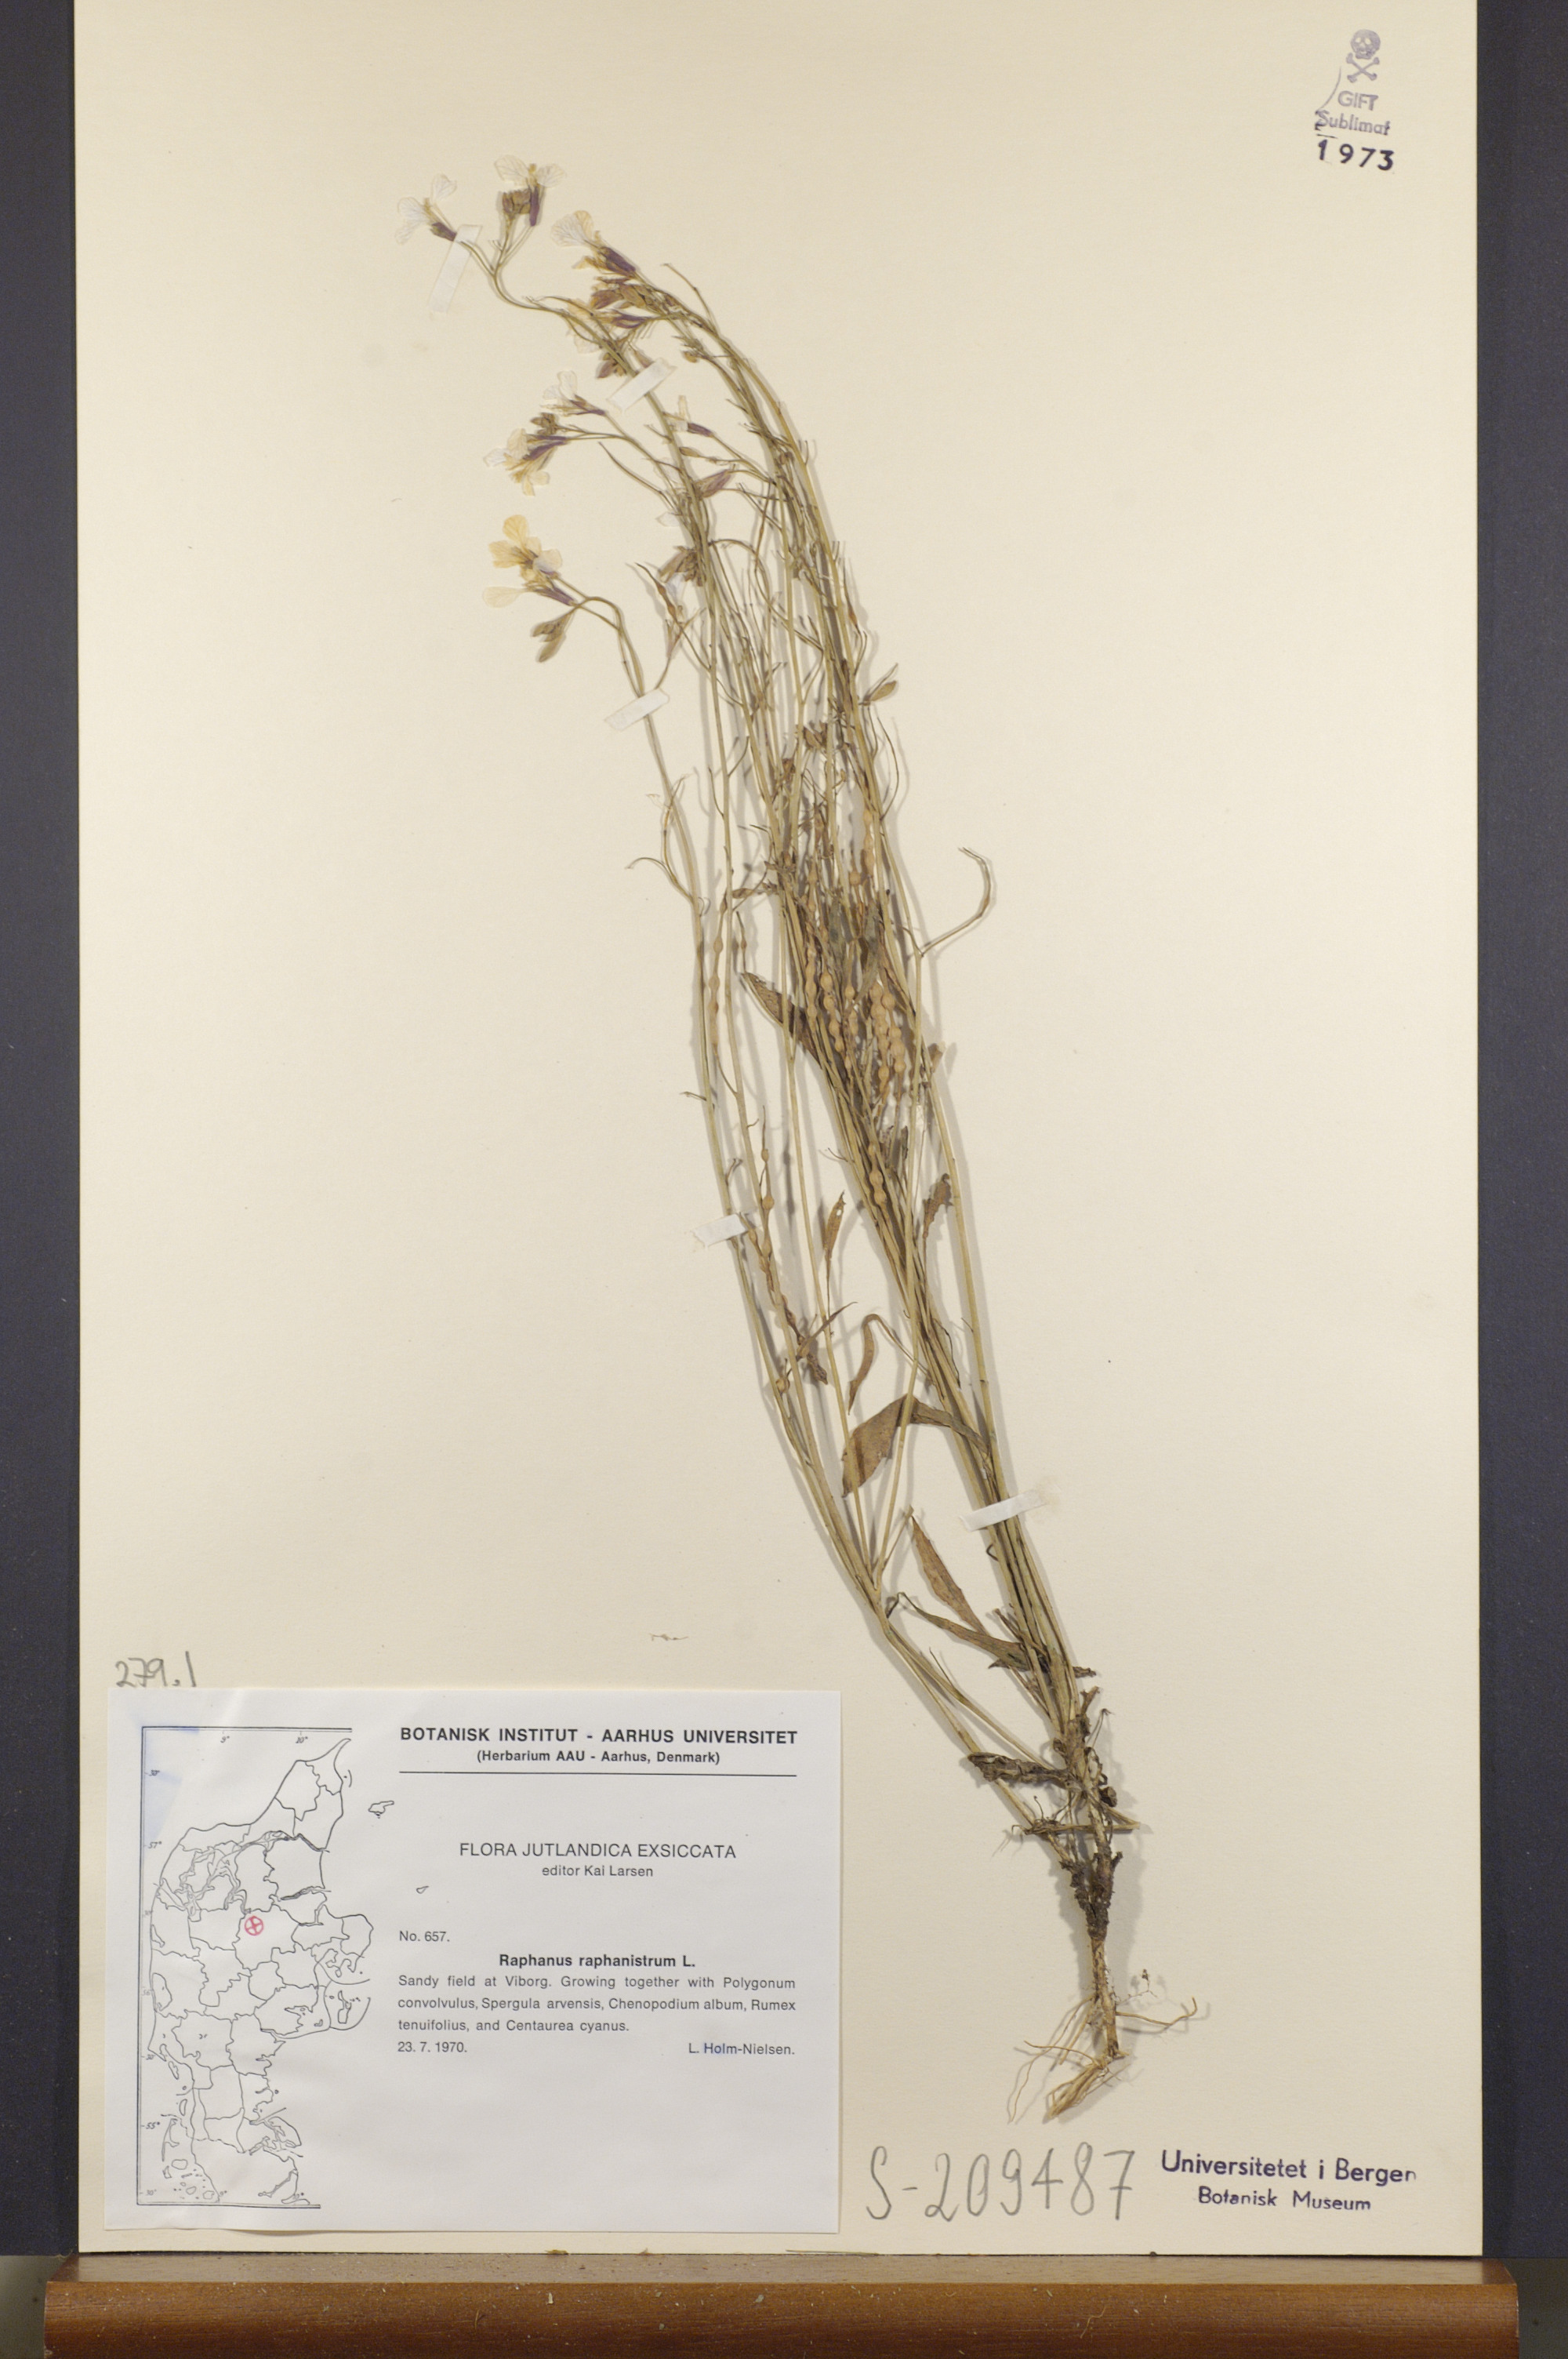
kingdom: Plantae
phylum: Tracheophyta
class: Magnoliopsida
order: Brassicales
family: Brassicaceae
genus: Raphanus
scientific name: Raphanus raphanistrum
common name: Wild radish
